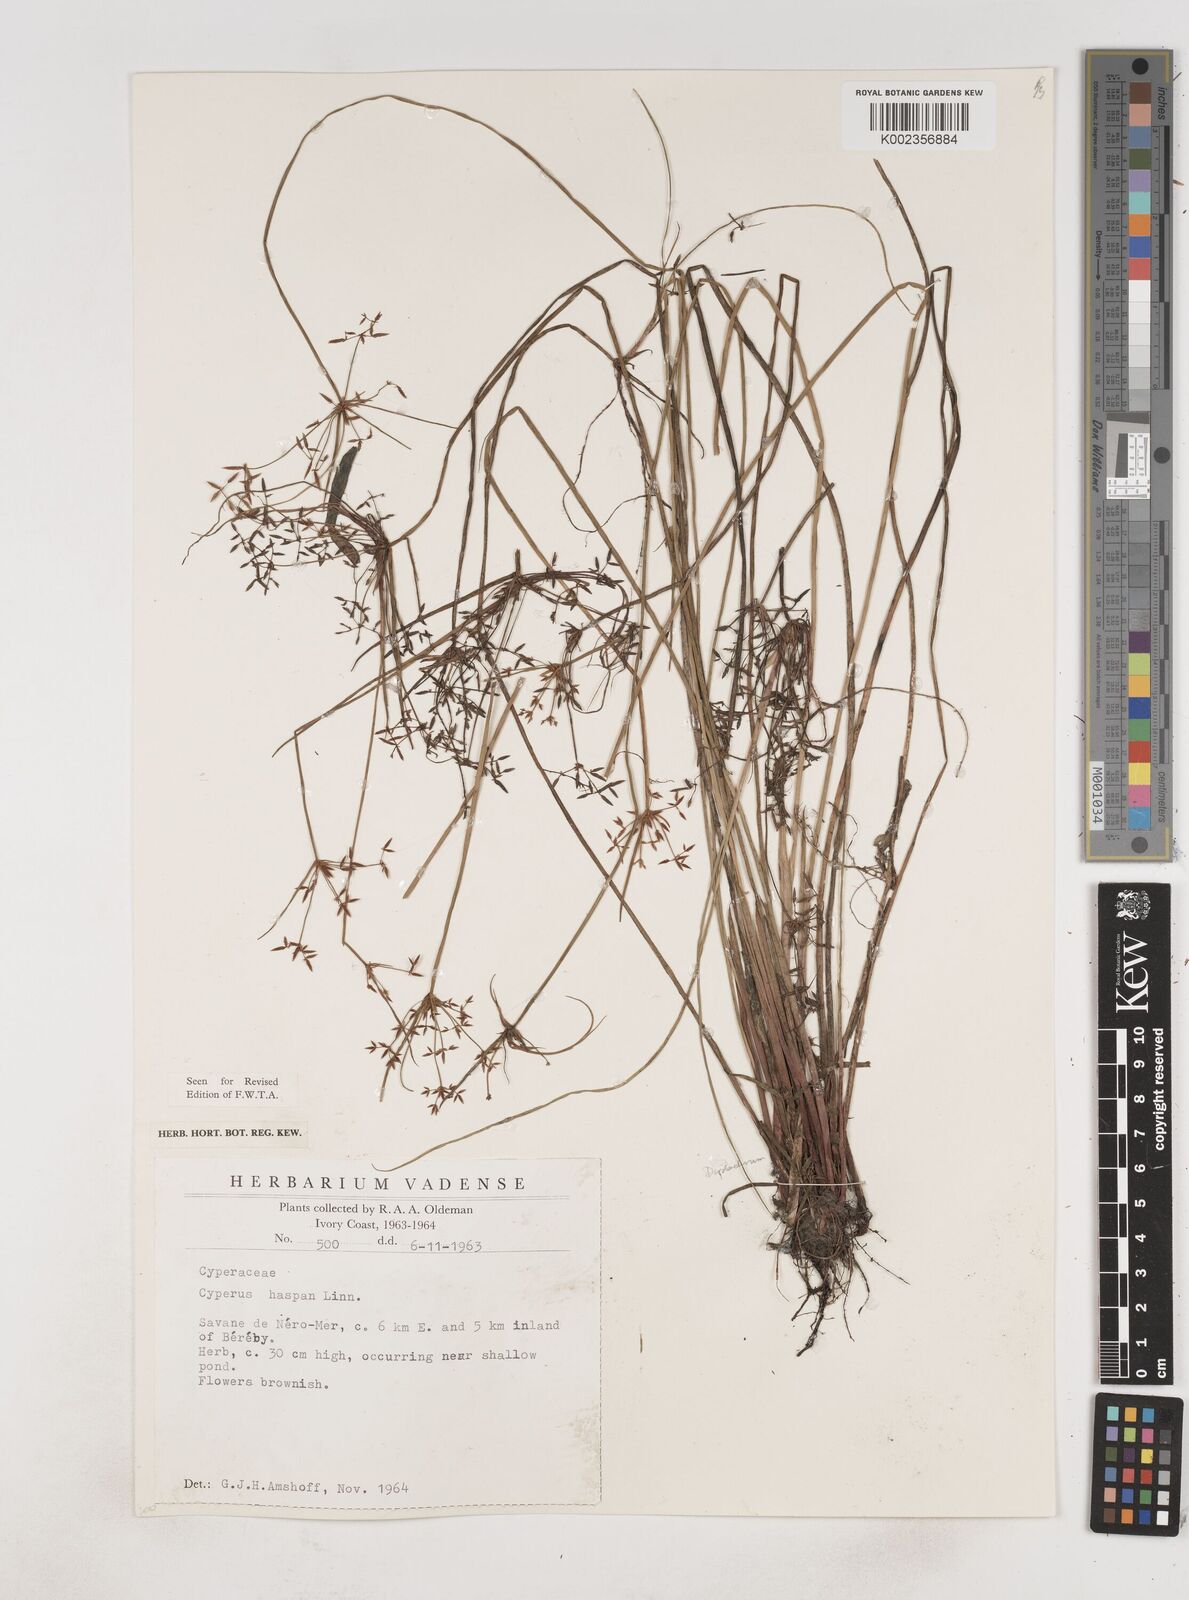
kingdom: Plantae
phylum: Tracheophyta
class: Liliopsida
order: Poales
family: Cyperaceae
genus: Cyperus
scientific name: Cyperus haspan
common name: Haspan flatsedge
